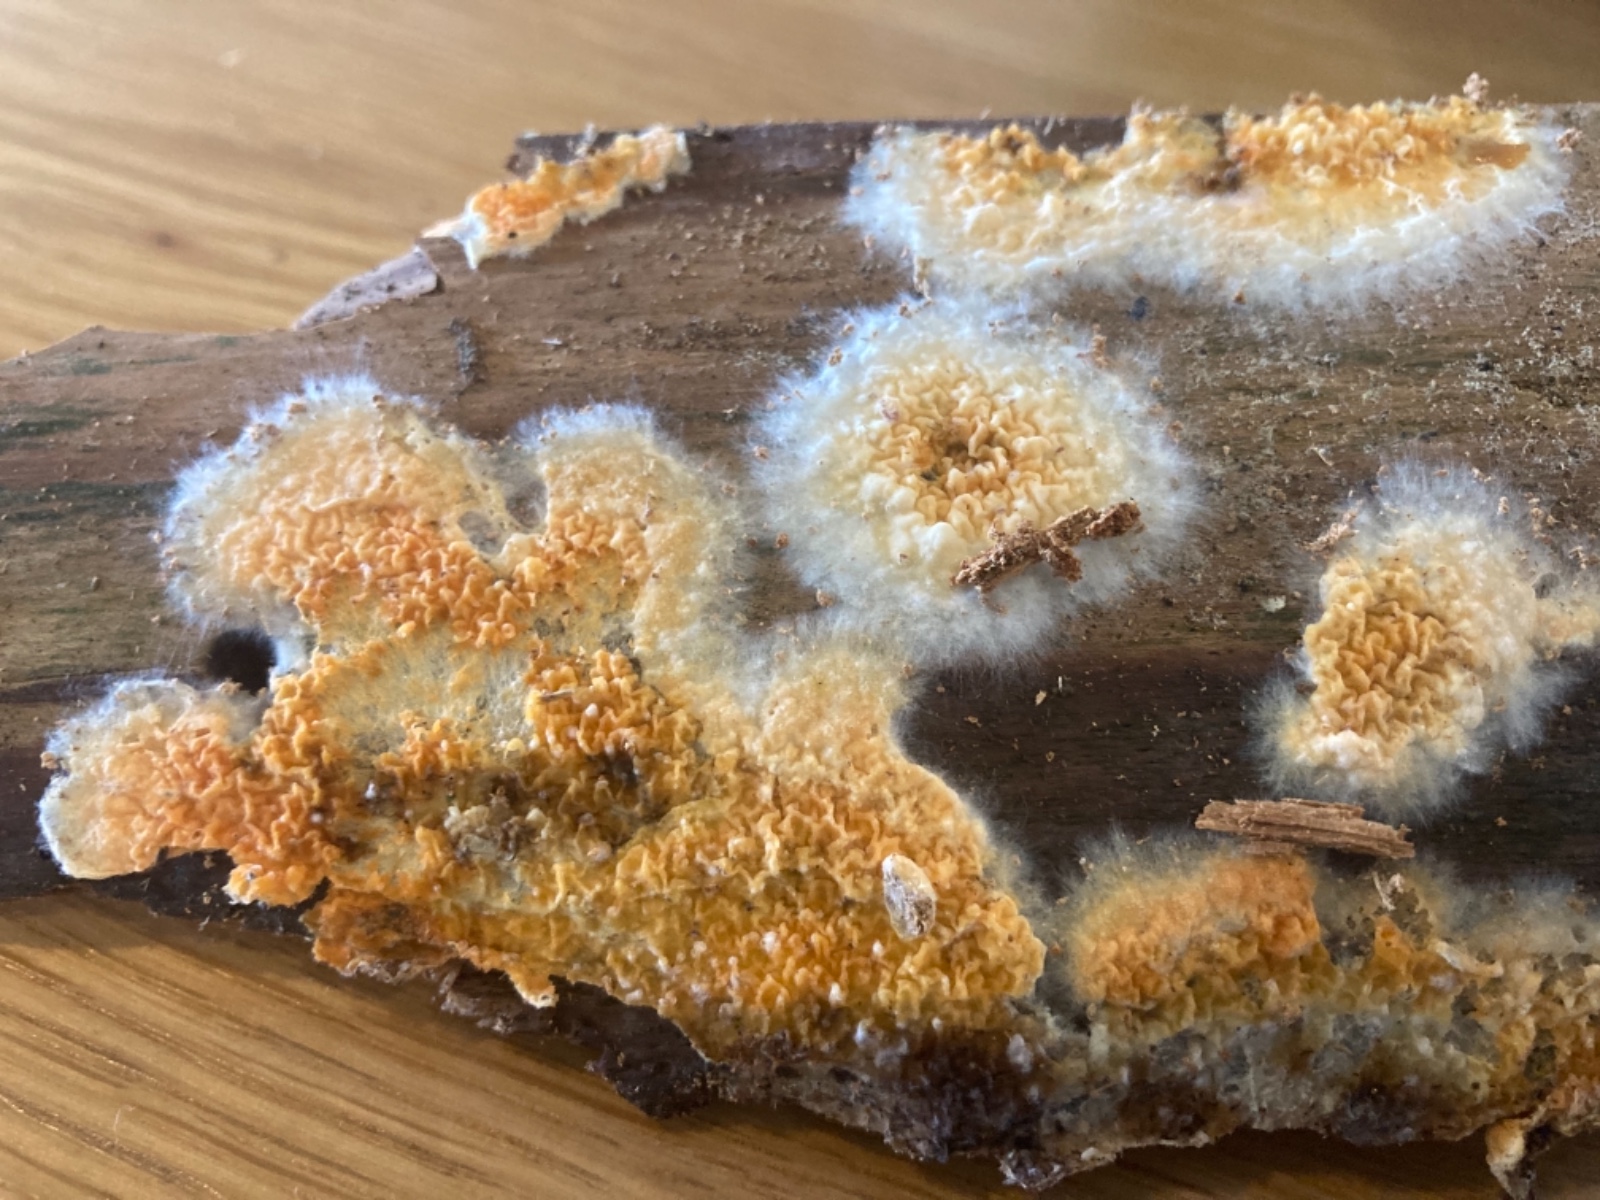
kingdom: Fungi
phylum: Basidiomycota
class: Agaricomycetes
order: Boletales
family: Coniophoraceae
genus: Penttilamyces
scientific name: Penttilamyces romellii
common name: Romells hussvamp
